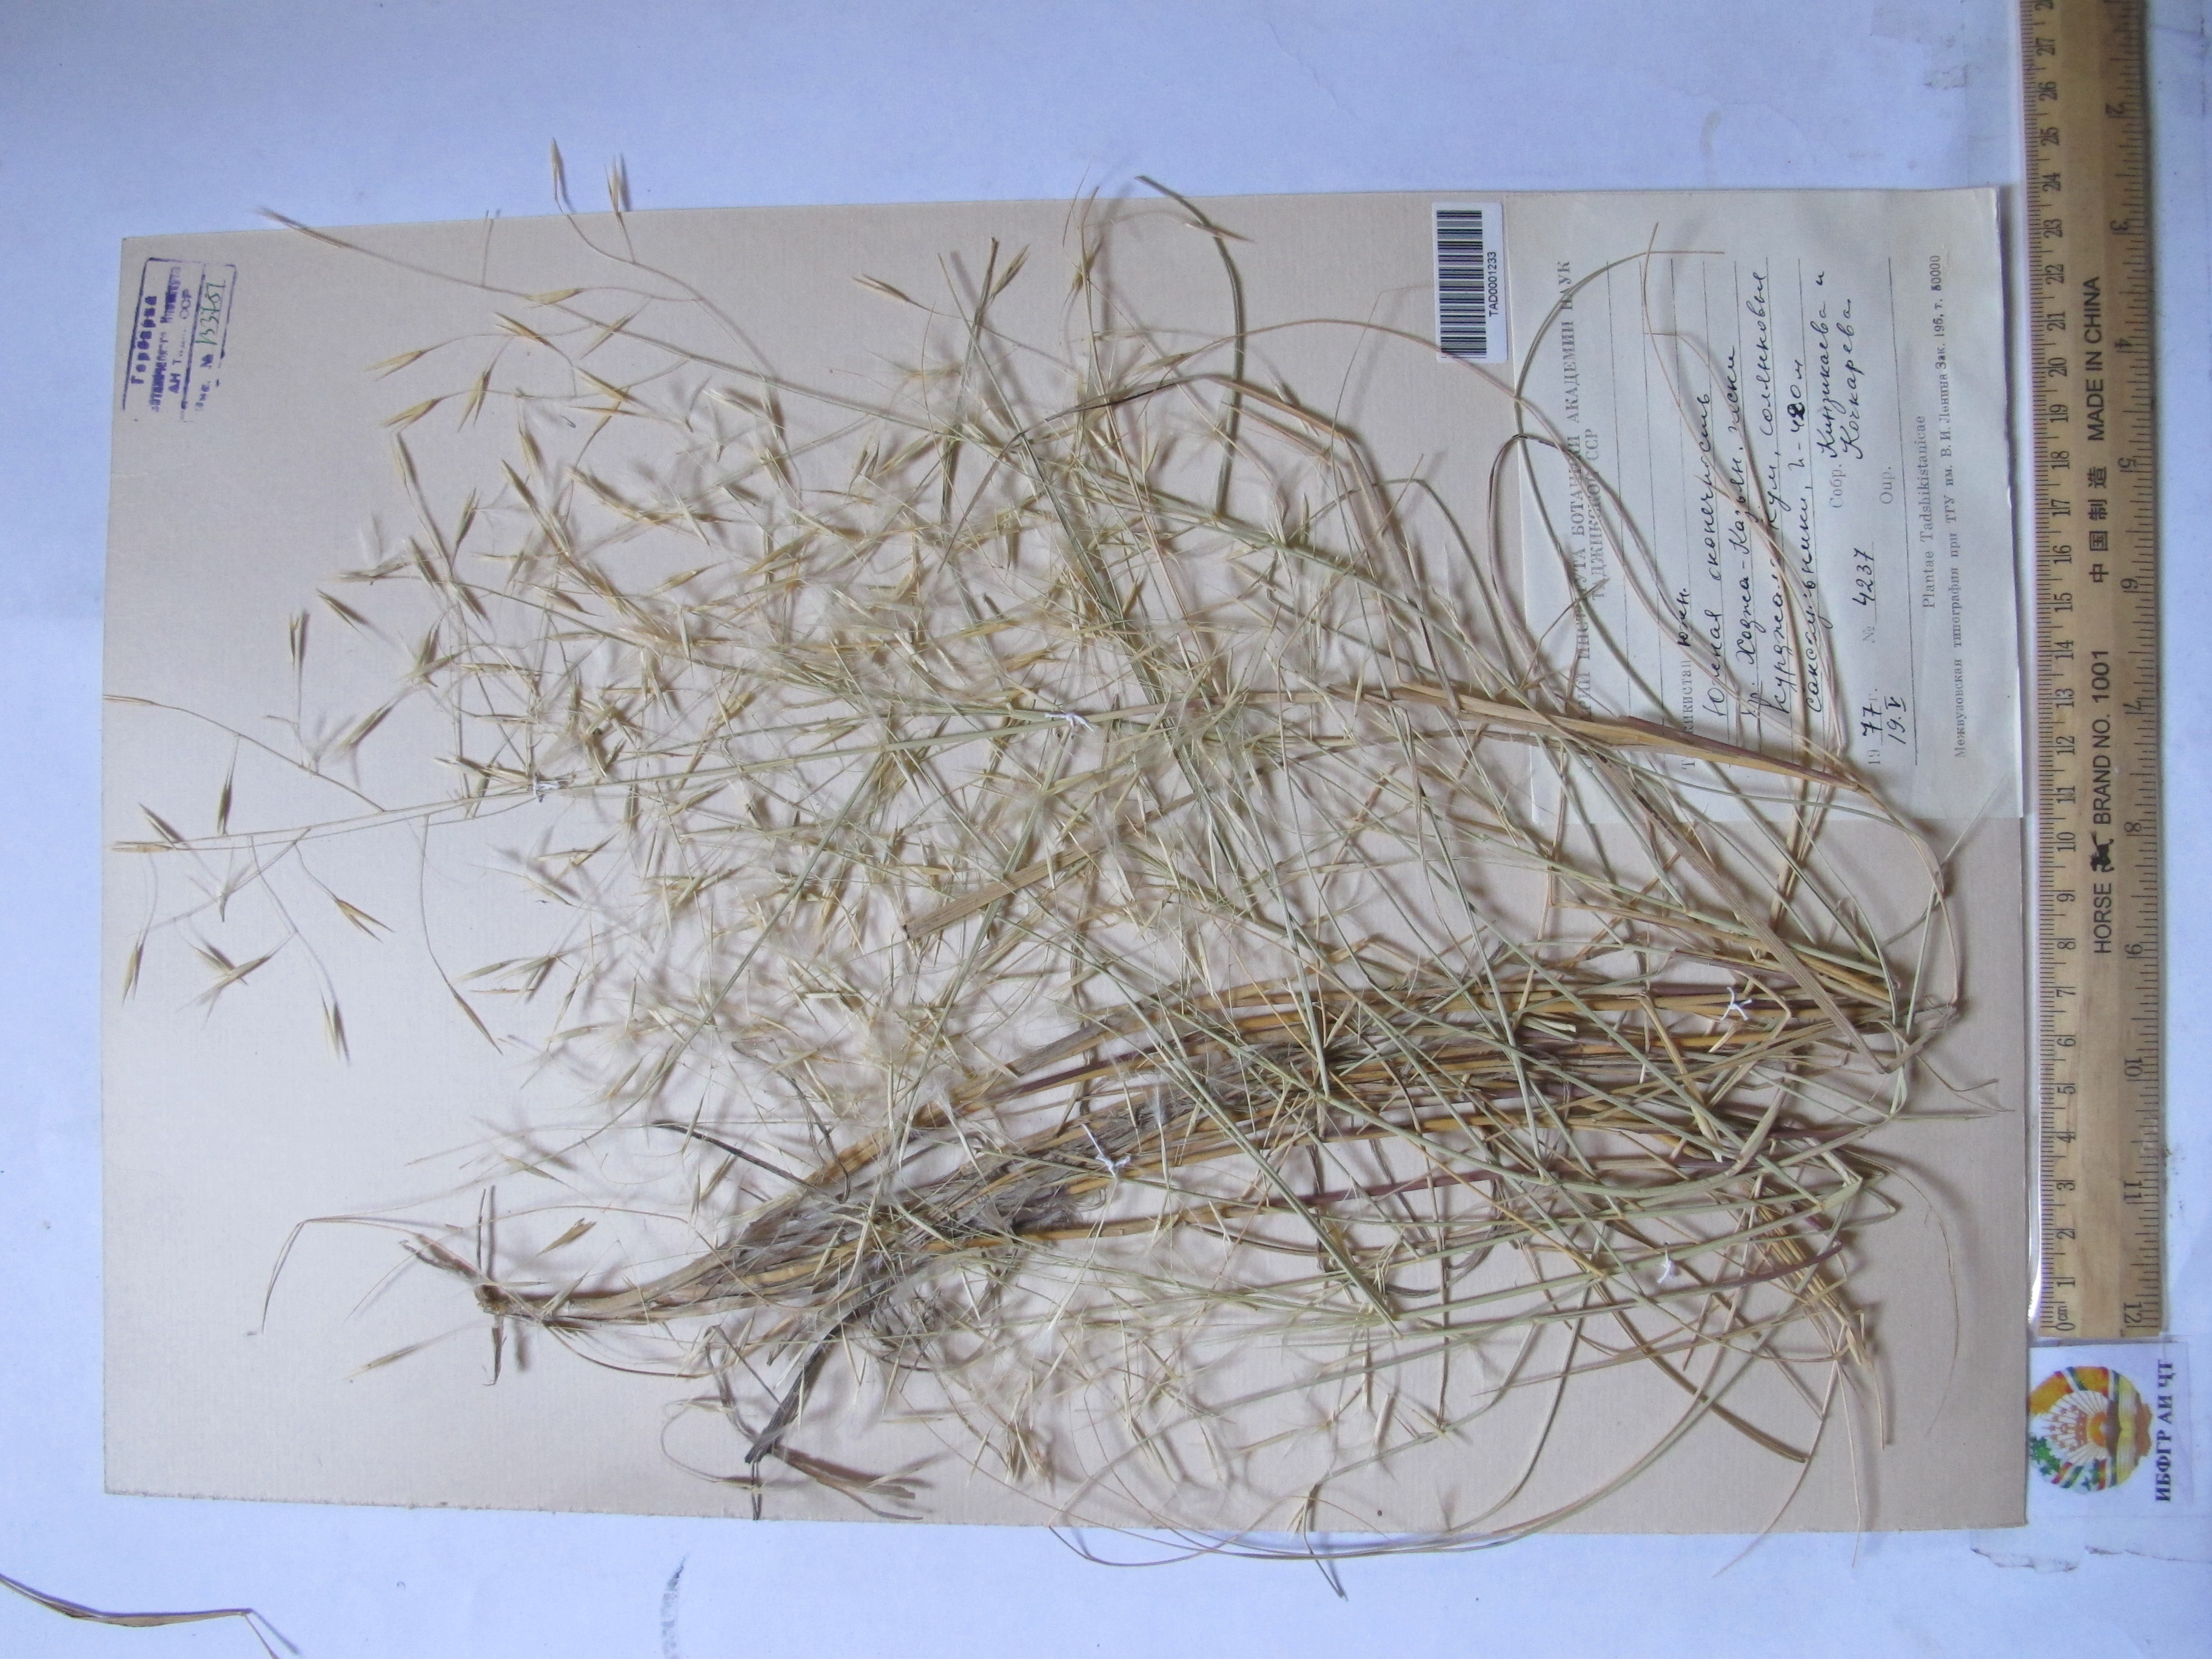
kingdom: Plantae
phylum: Tracheophyta
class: Liliopsida
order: Poales
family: Poaceae
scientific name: Poaceae
